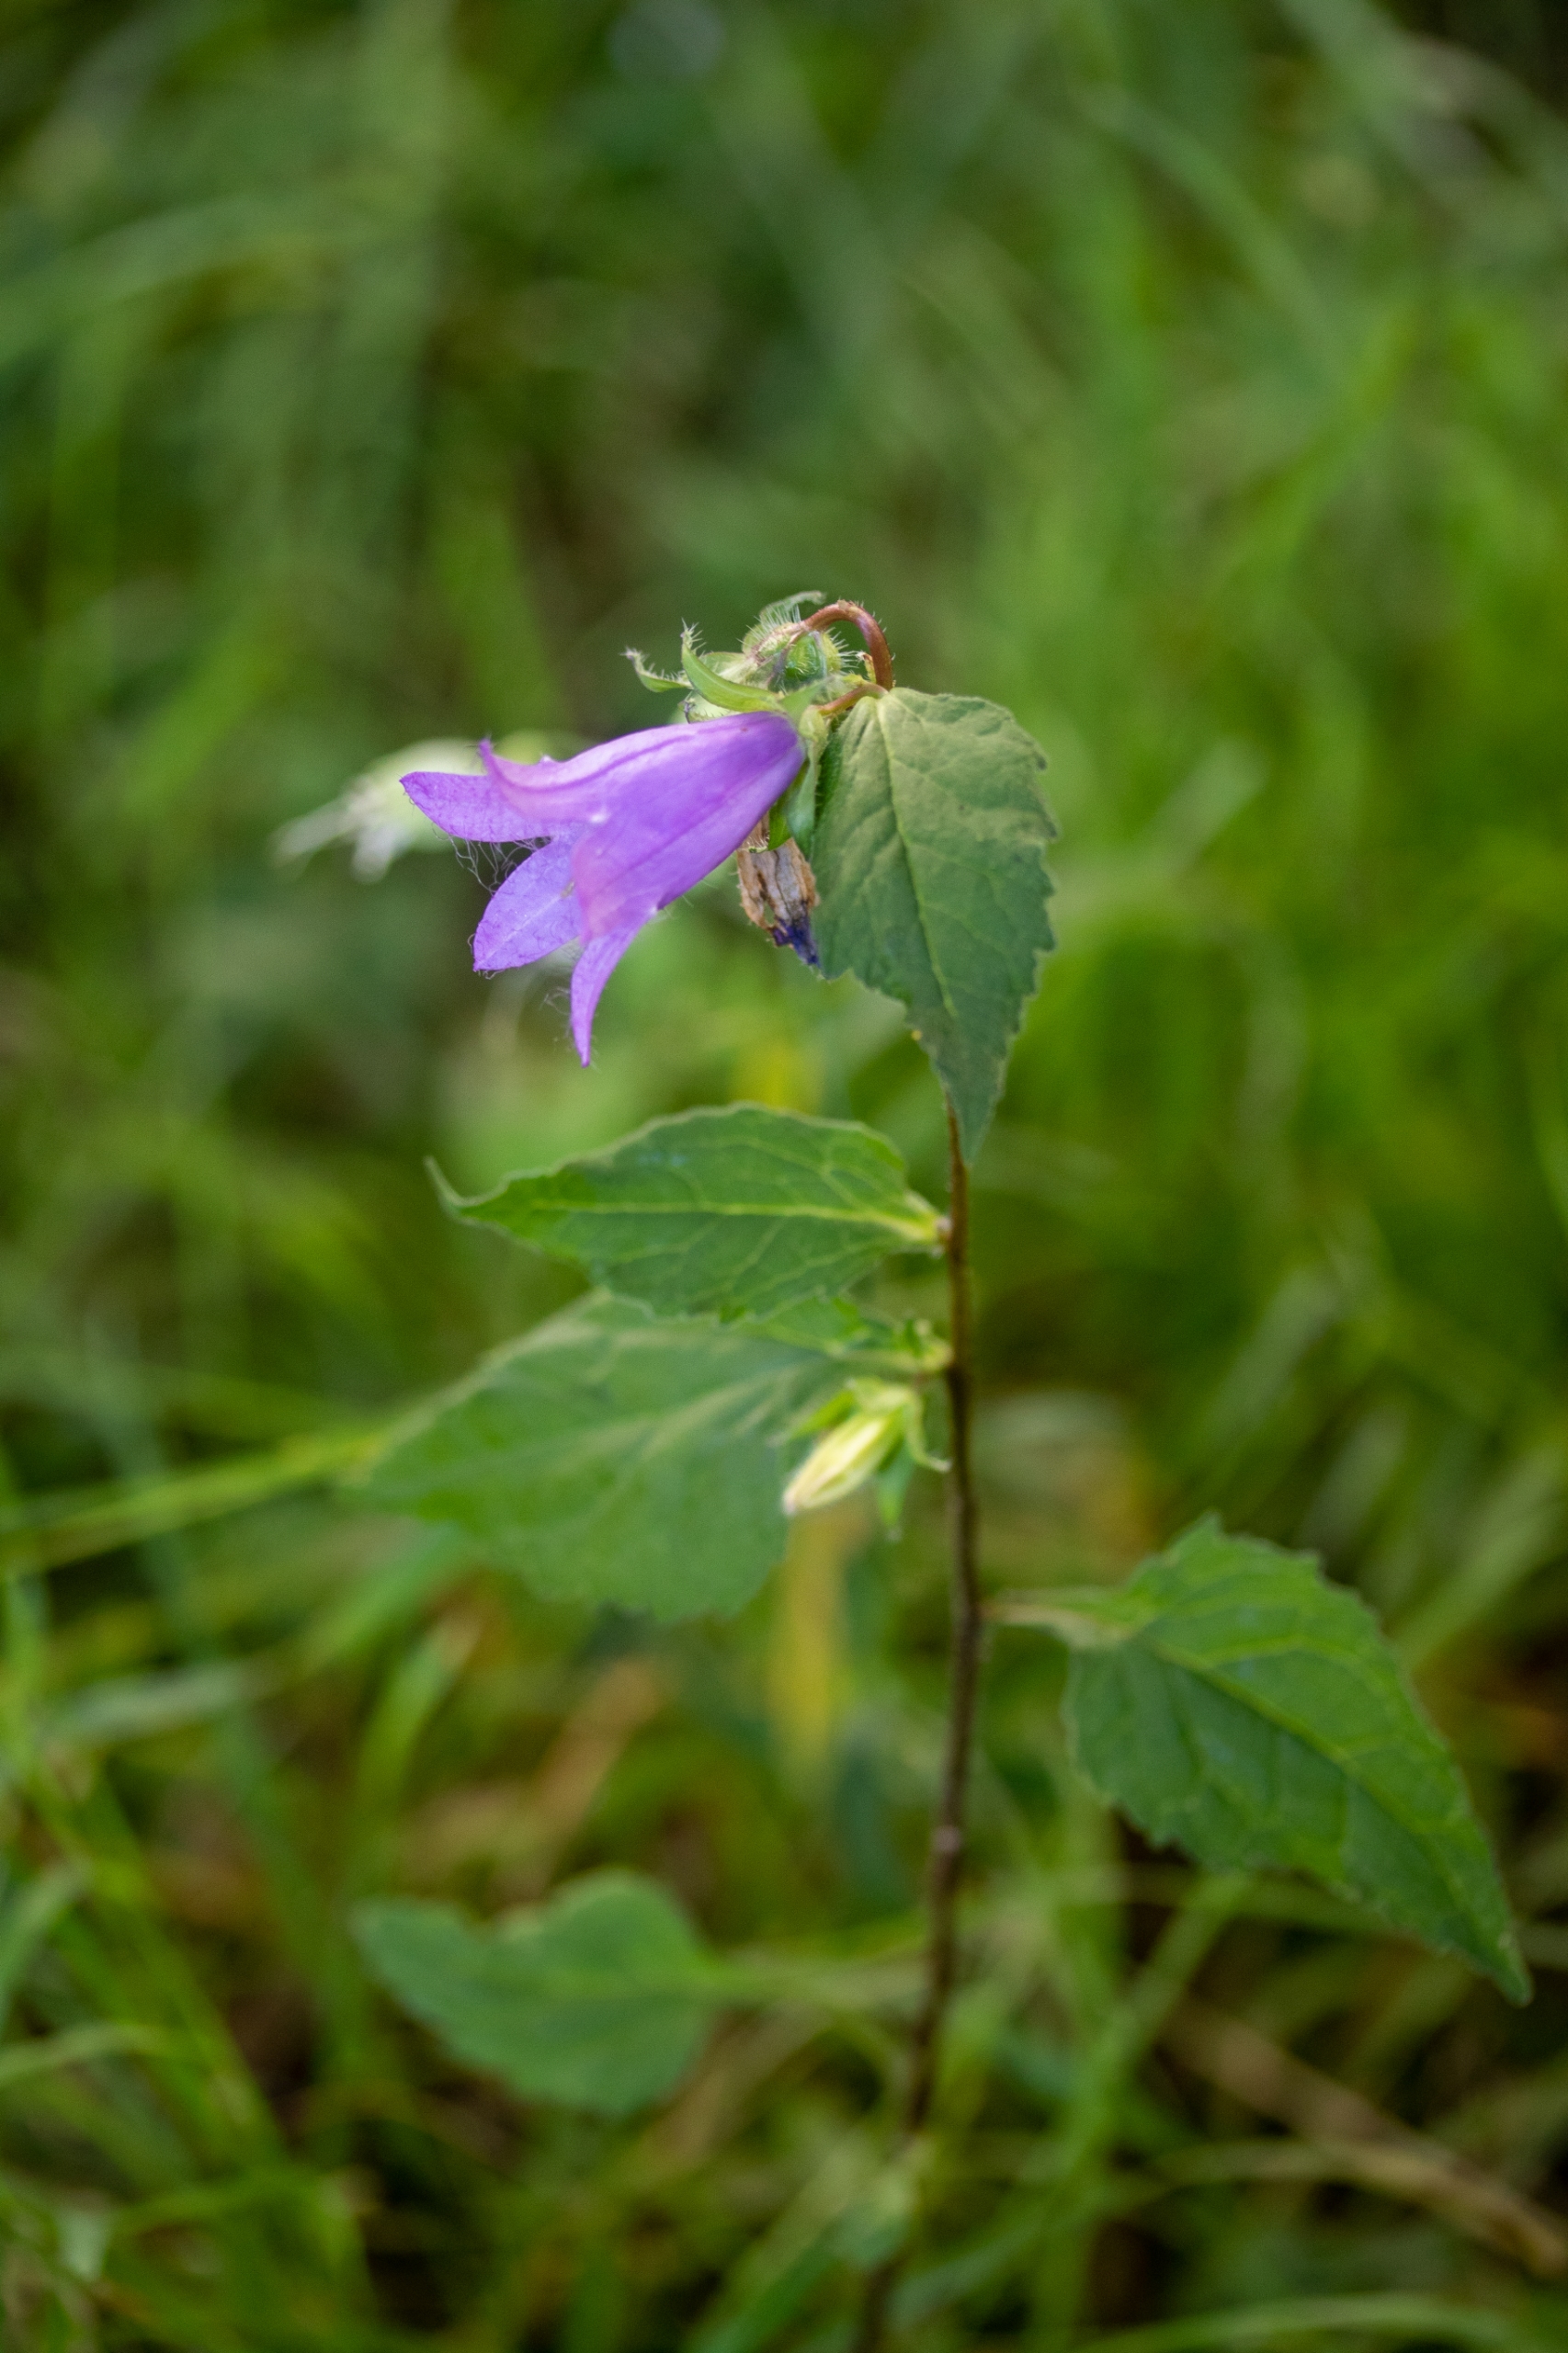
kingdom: Plantae
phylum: Tracheophyta
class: Magnoliopsida
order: Asterales
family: Campanulaceae
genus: Campanula
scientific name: Campanula trachelium
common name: Nælde-klokke
